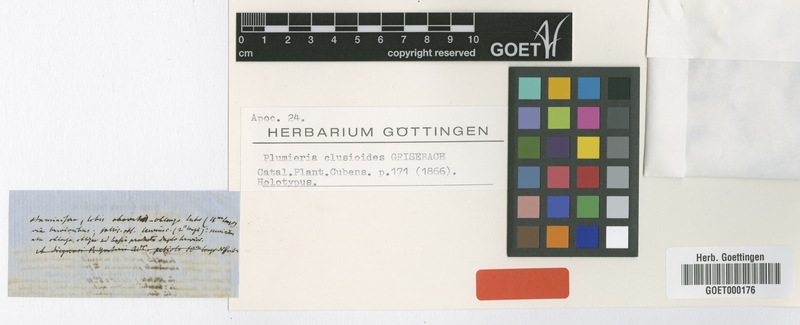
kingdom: Plantae
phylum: Tracheophyta
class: Magnoliopsida
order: Gentianales
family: Apocynaceae
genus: Plumeria
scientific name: Plumeria clusioides
